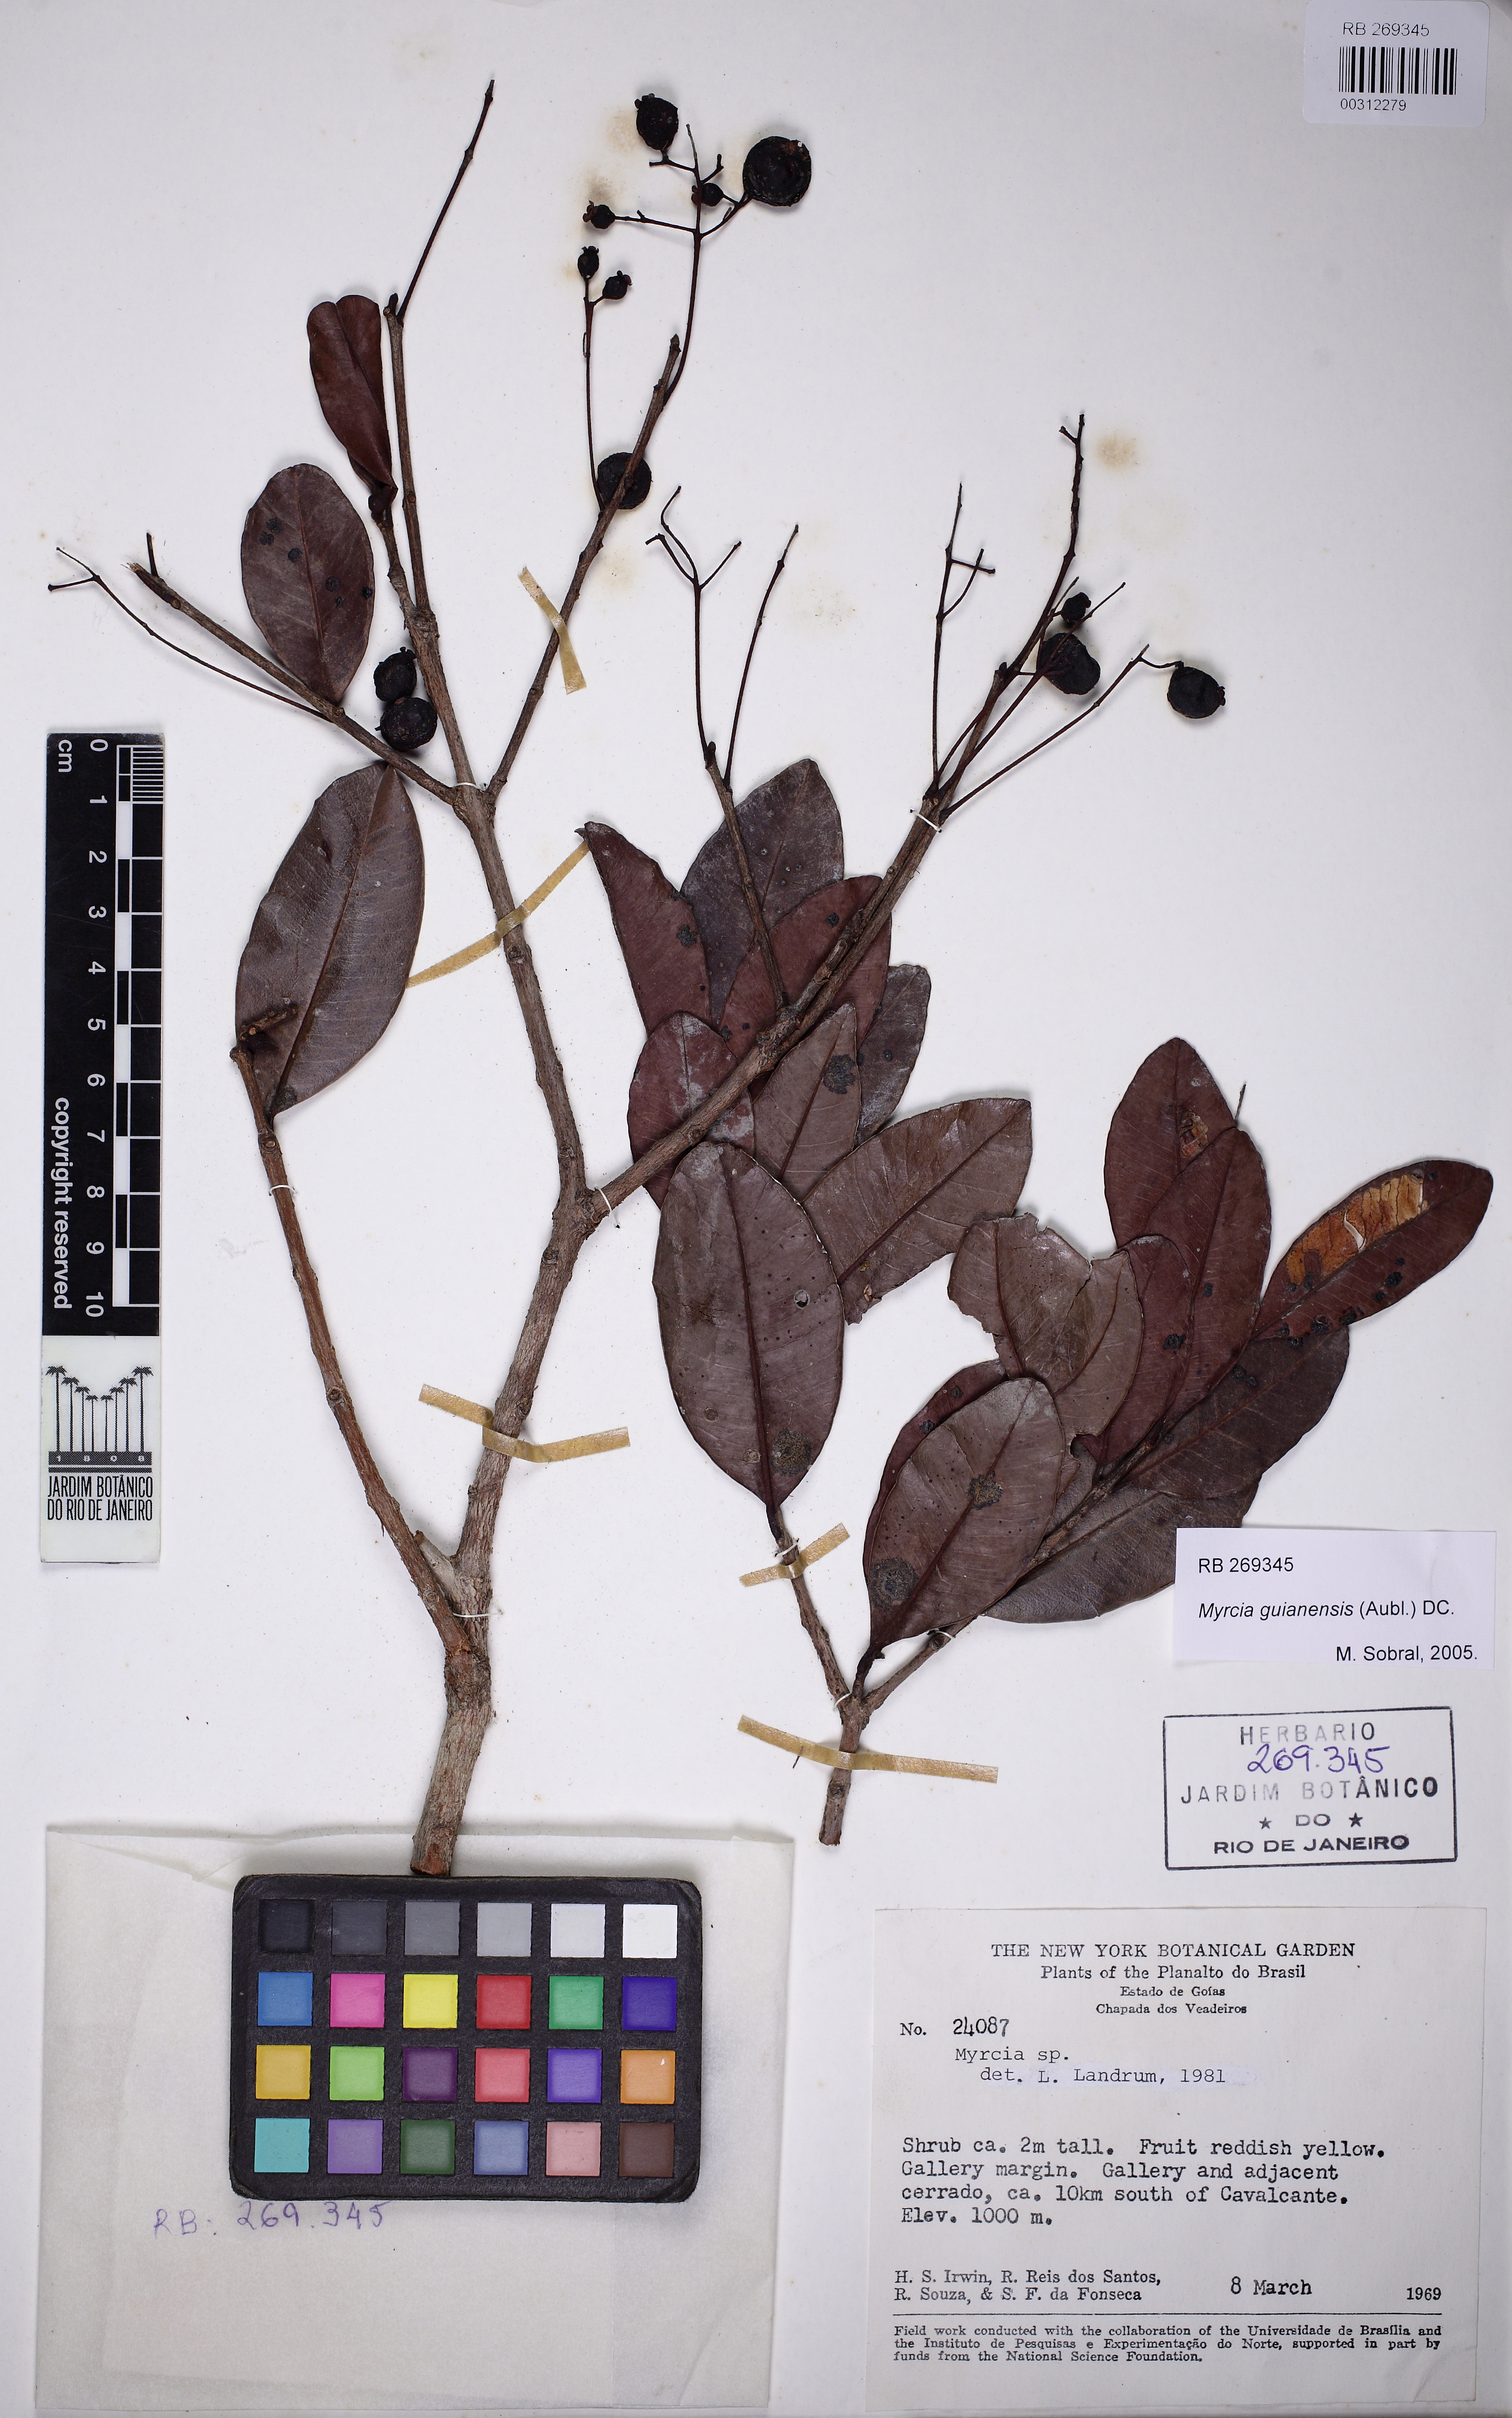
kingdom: Plantae
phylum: Tracheophyta
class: Magnoliopsida
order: Myrtales
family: Myrtaceae
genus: Myrcia
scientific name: Myrcia guianensis
